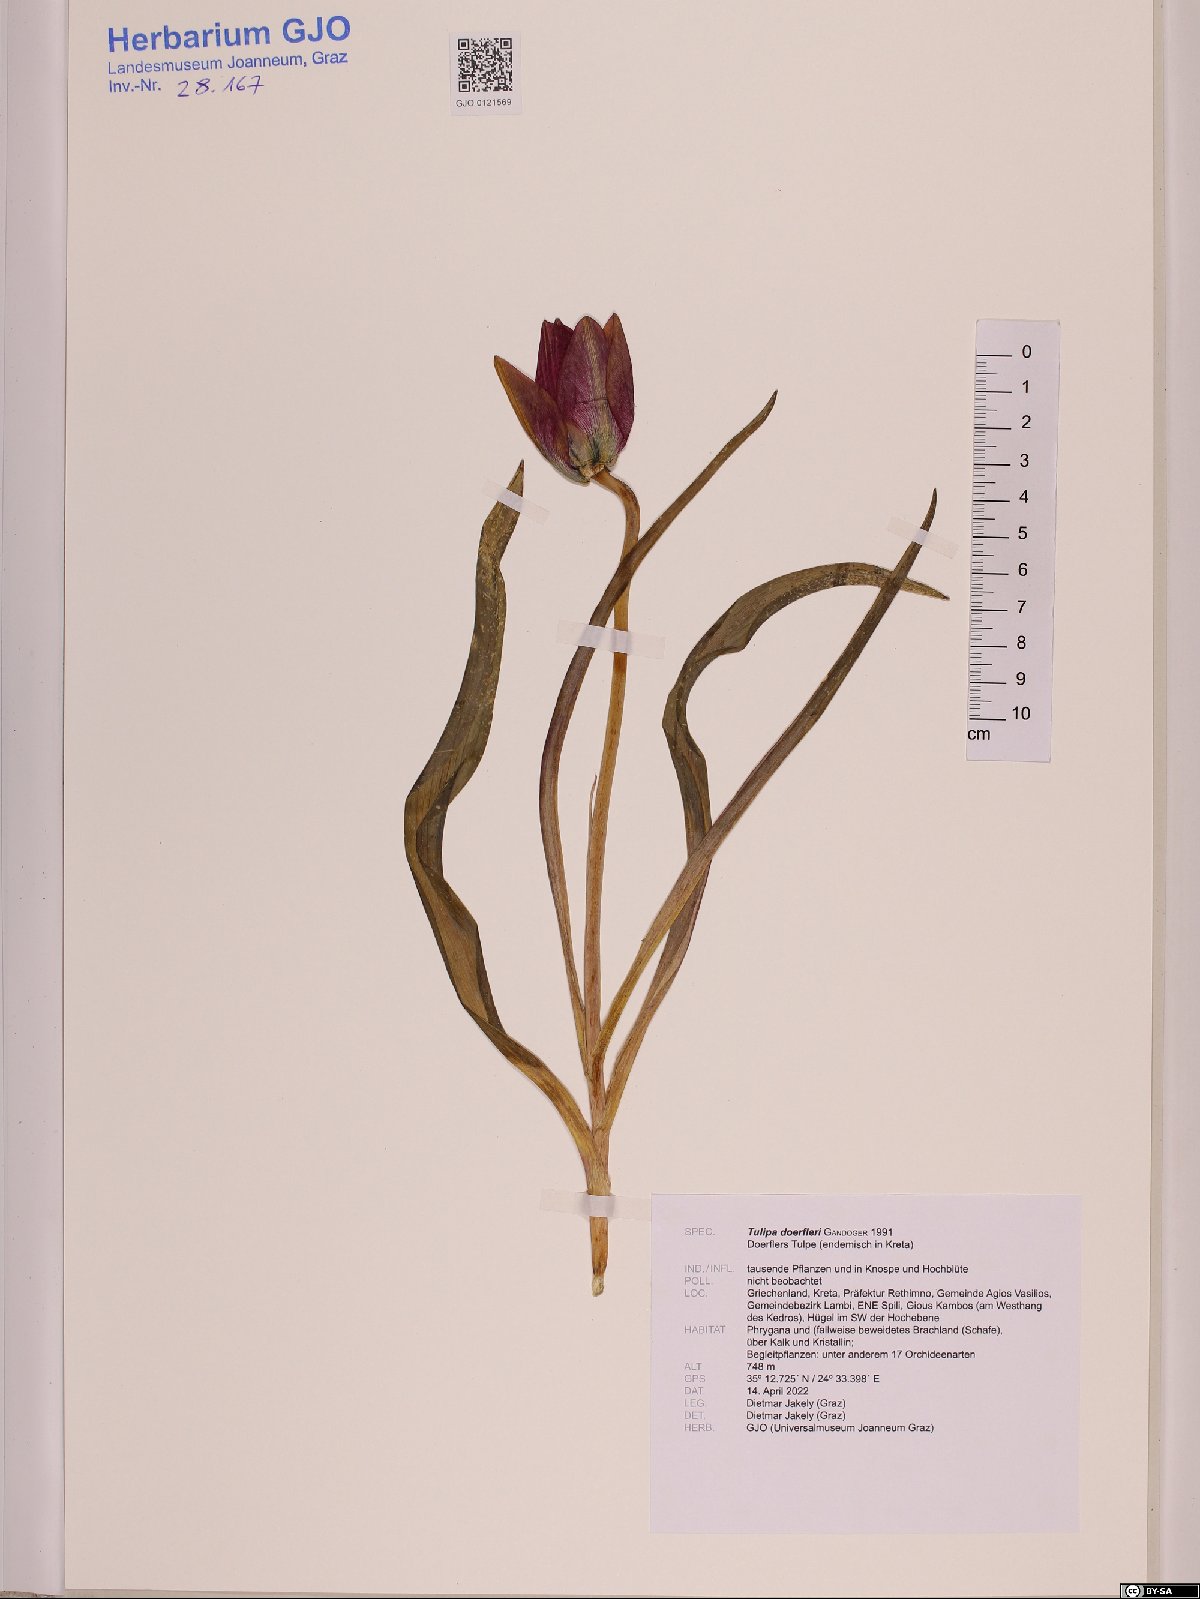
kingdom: Plantae
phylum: Tracheophyta
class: Liliopsida
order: Liliales
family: Liliaceae
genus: Tulipa
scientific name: Tulipa orphanidea
